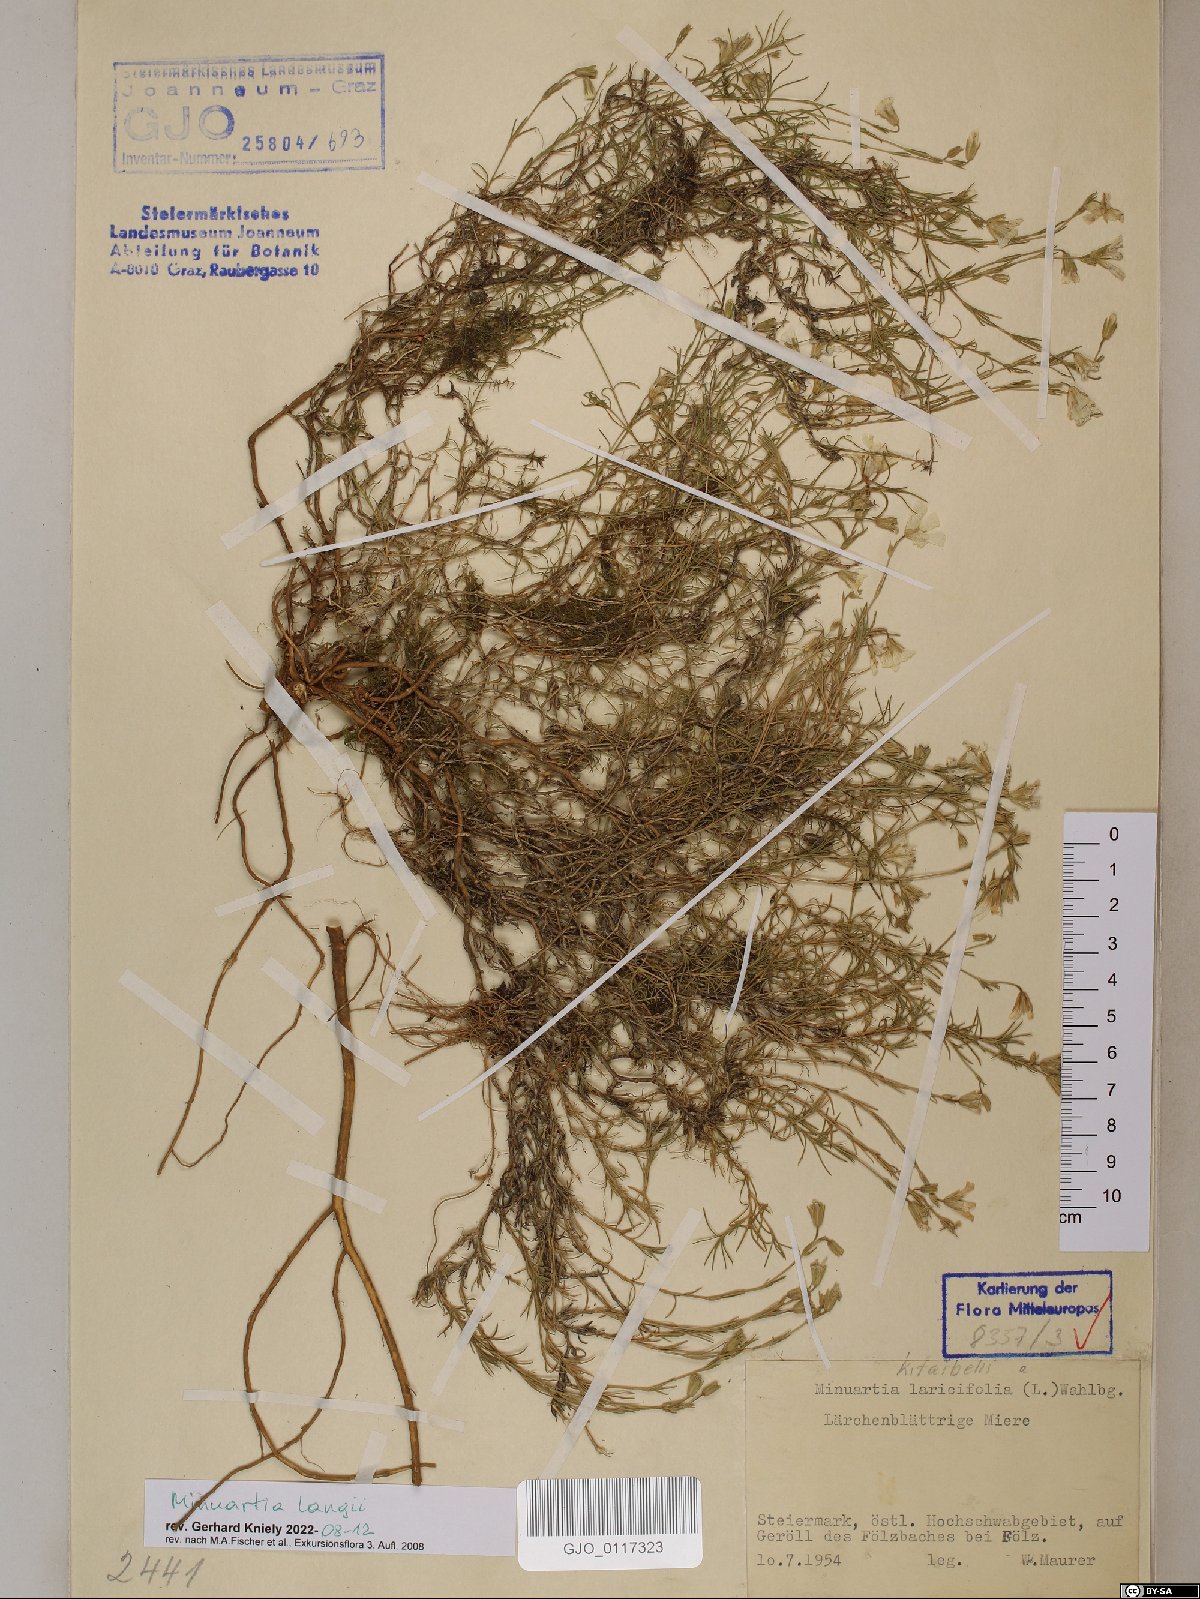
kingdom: Plantae
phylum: Tracheophyta
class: Magnoliopsida
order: Caryophyllales
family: Caryophyllaceae
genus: Cherleria
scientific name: Cherleria langii
